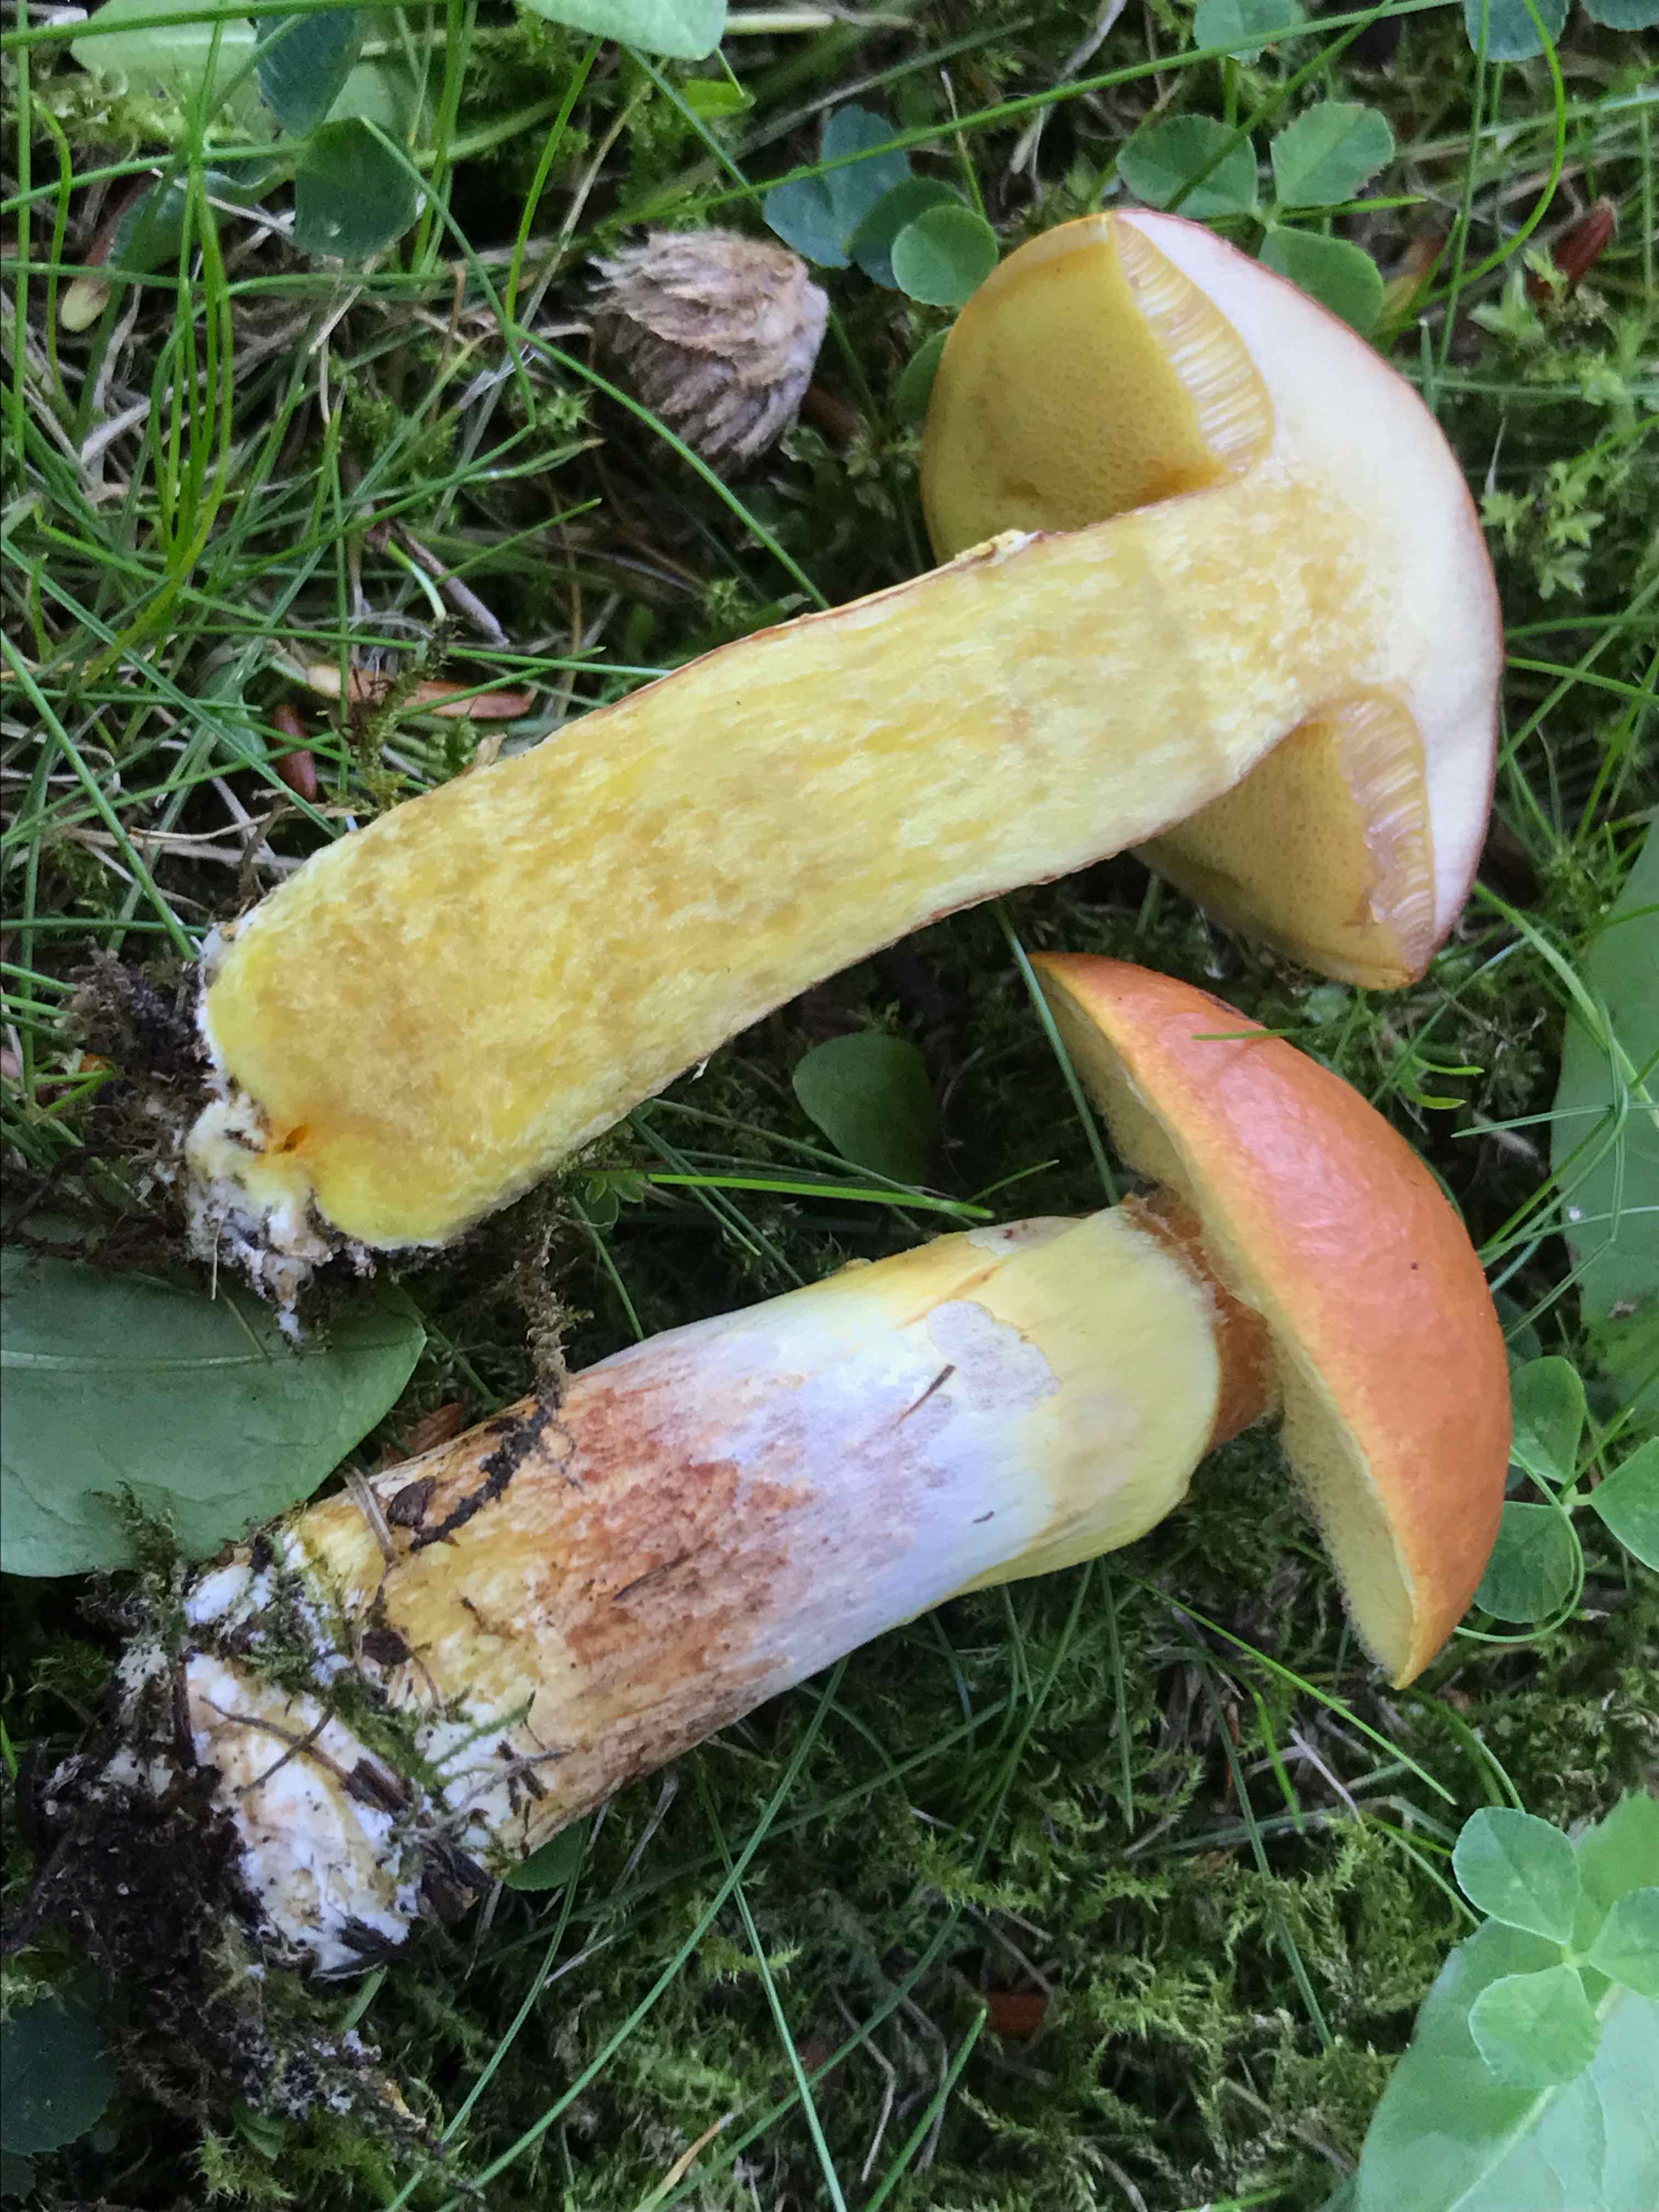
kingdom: Fungi
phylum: Basidiomycota
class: Agaricomycetes
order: Boletales
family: Suillaceae
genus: Suillus
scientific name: Suillus grevillei
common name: lærke-slimrørhat
